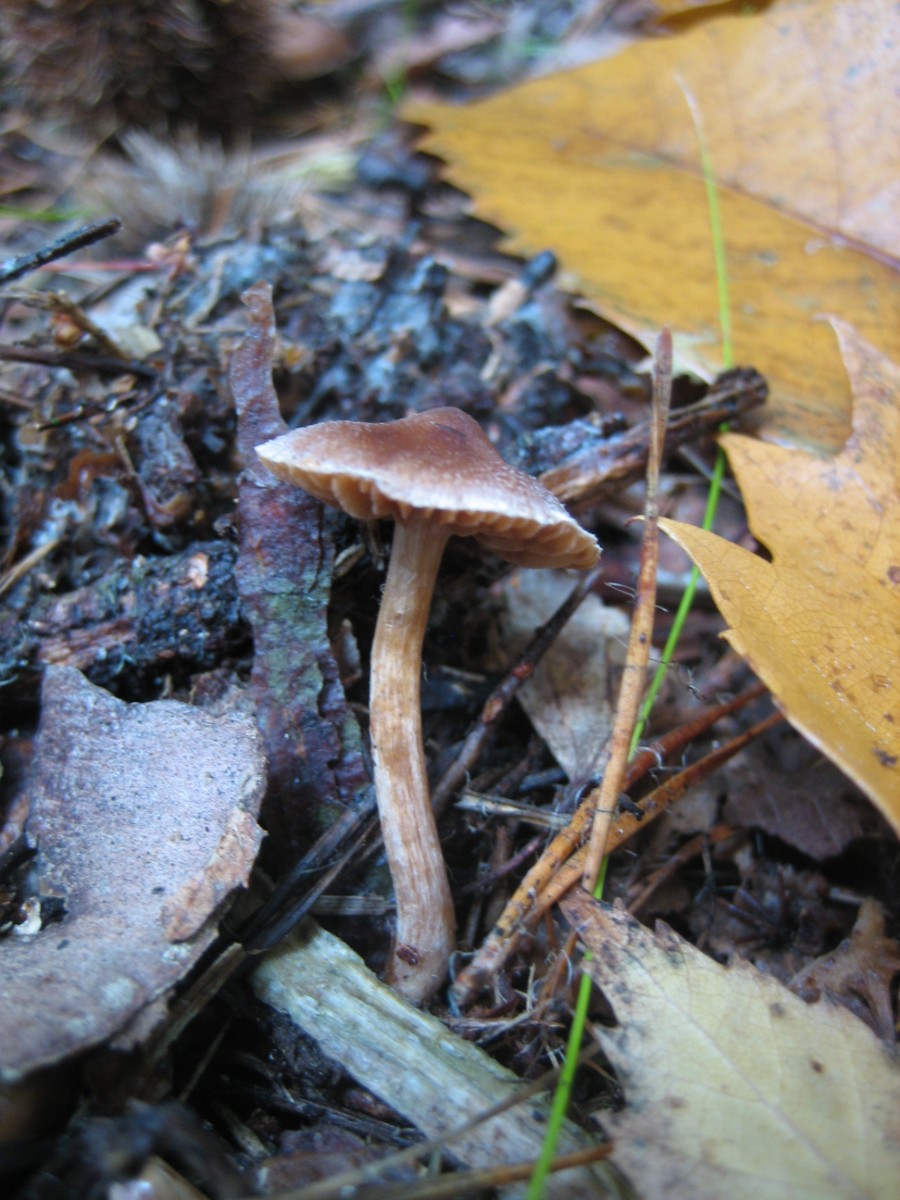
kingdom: Fungi
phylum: Basidiomycota
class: Agaricomycetes
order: Agaricales
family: Cortinariaceae
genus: Cortinarius
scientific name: Cortinarius
